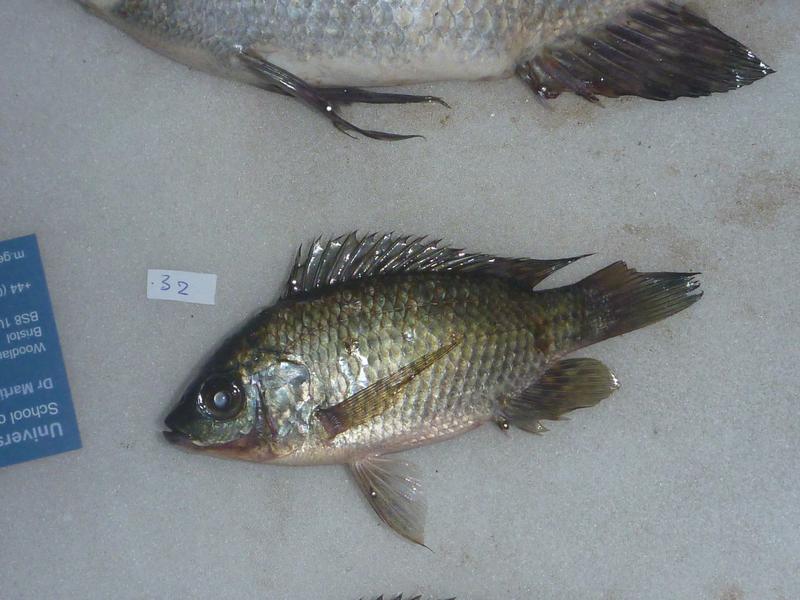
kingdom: Animalia
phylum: Chordata
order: Perciformes
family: Cichlidae
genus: Oreochromis
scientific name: Oreochromis upembae
